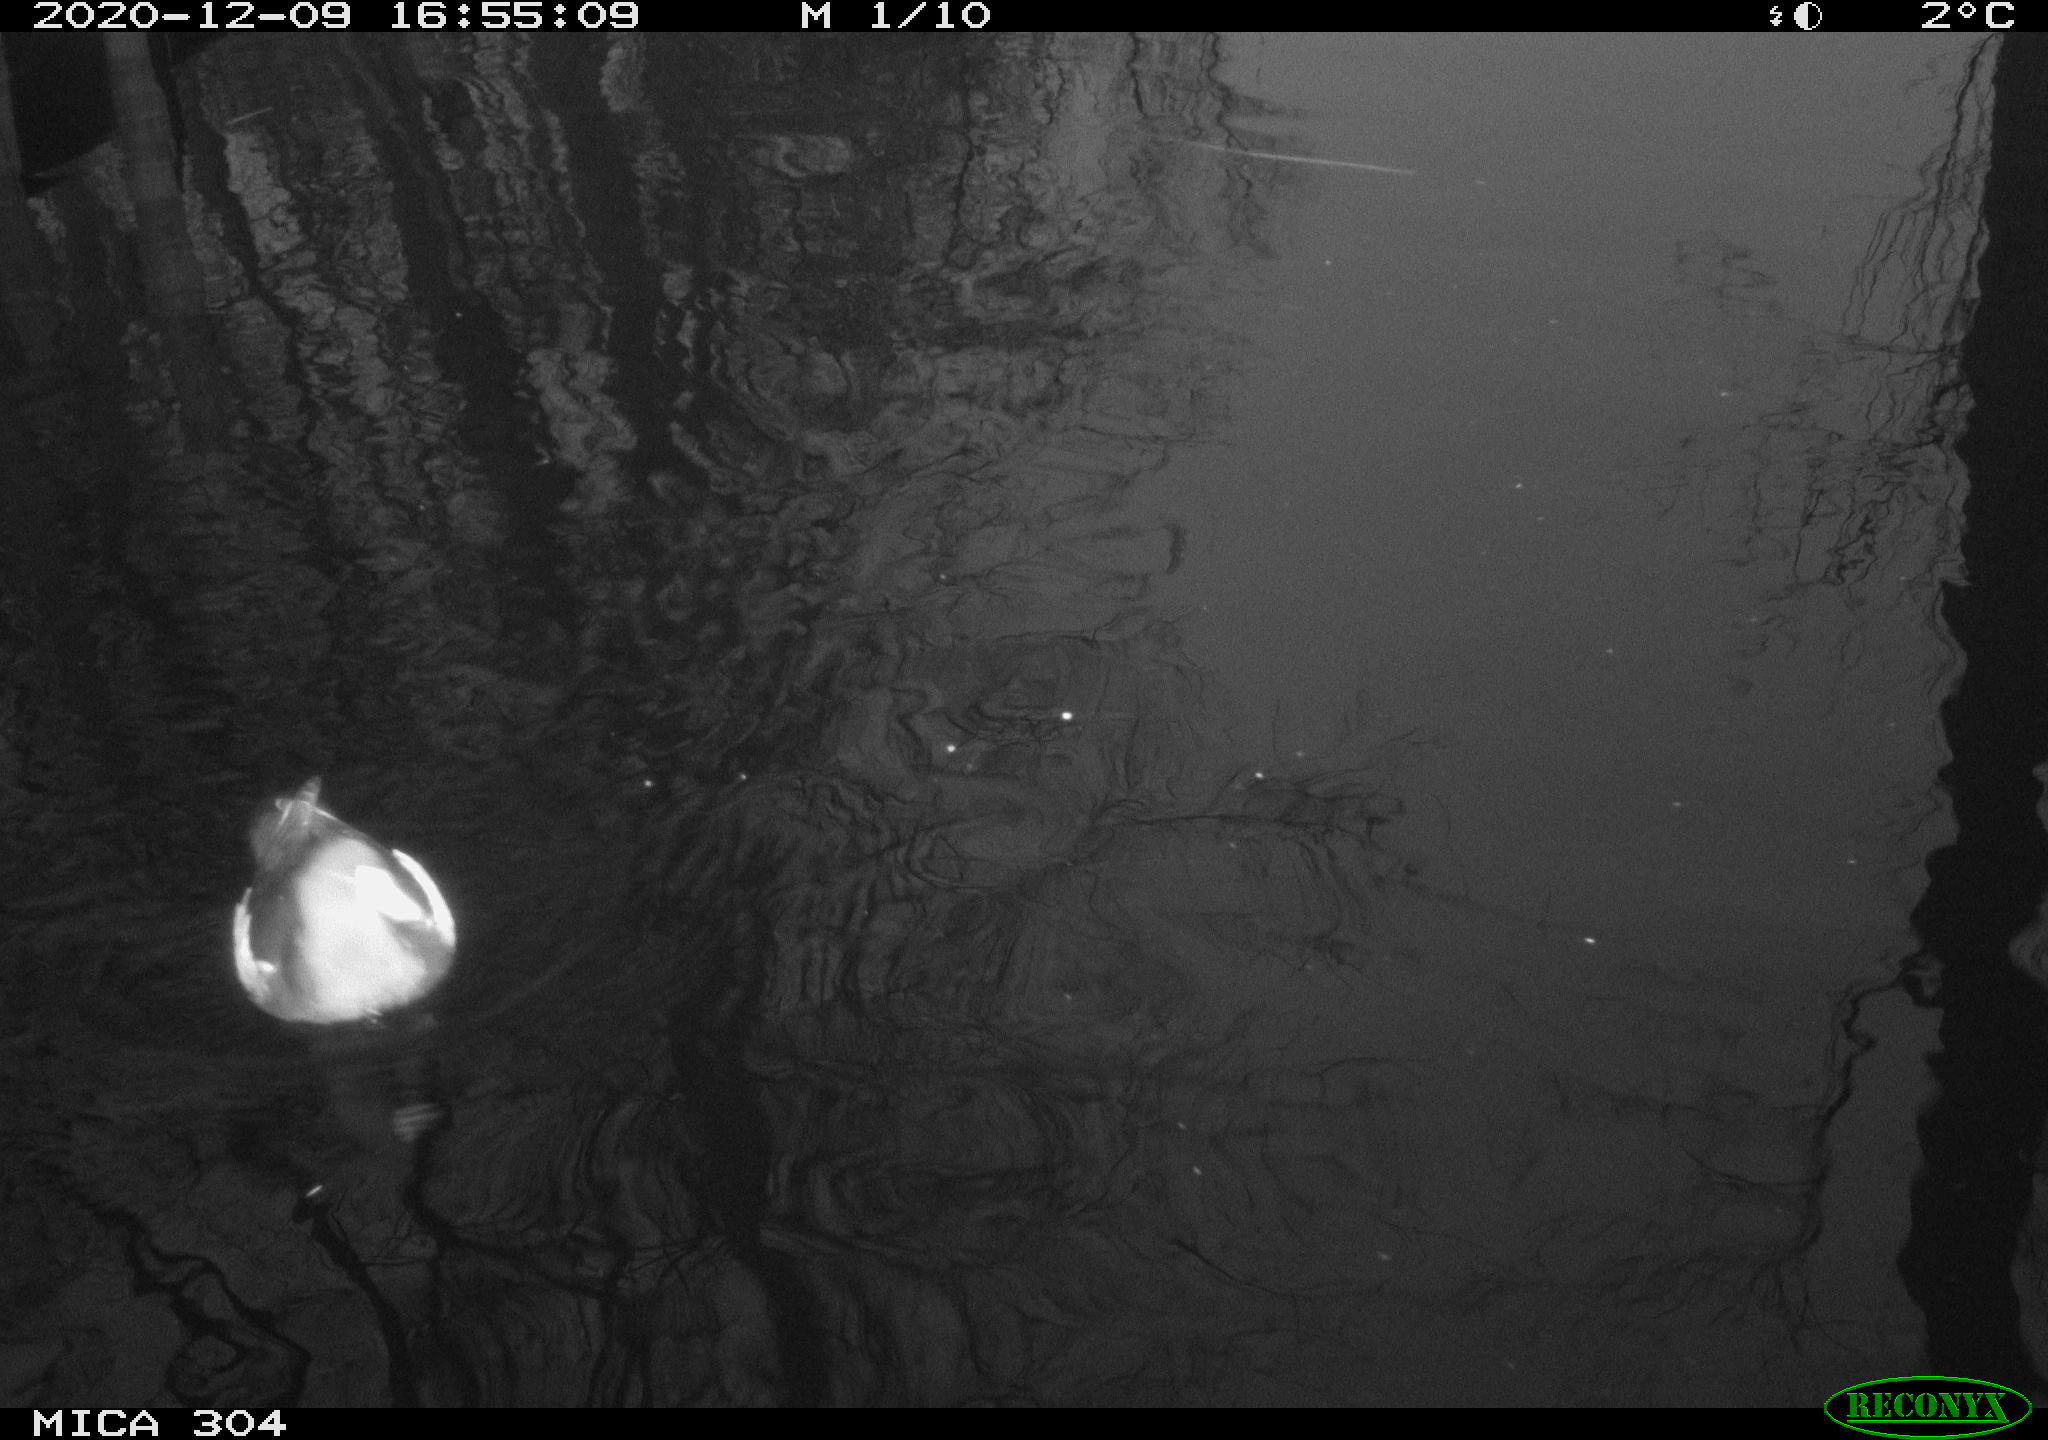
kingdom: Animalia
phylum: Chordata
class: Aves
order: Gruiformes
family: Rallidae
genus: Fulica
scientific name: Fulica atra
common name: Eurasian coot
